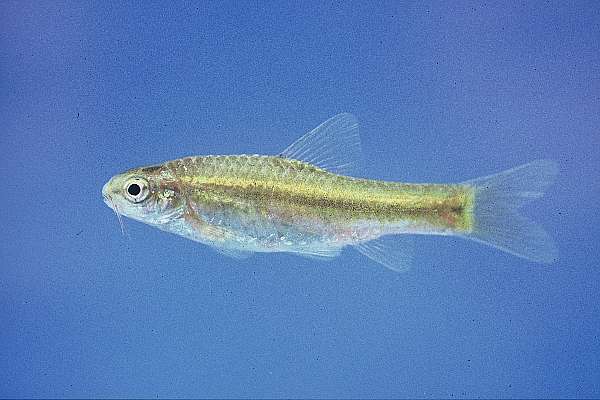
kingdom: Animalia
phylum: Chordata
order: Cypriniformes
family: Cyprinidae
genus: Barbus
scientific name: Barbus
